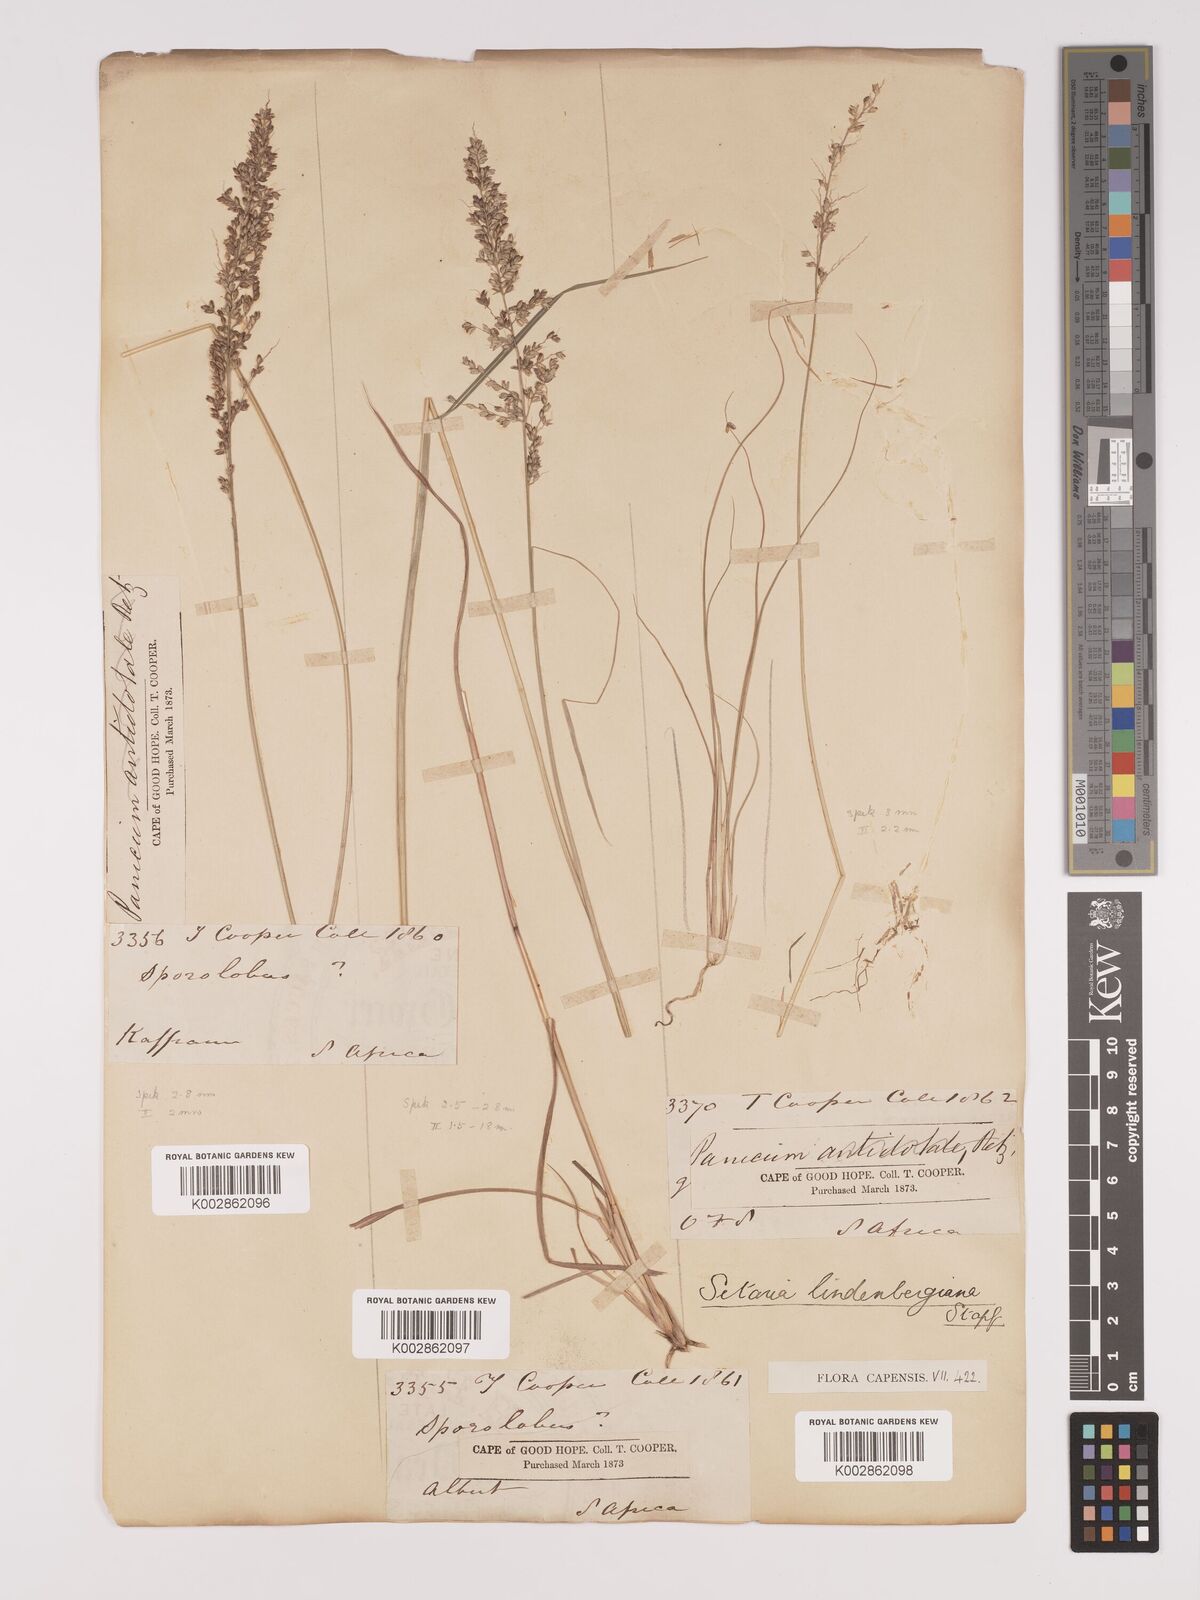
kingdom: Plantae
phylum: Tracheophyta
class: Liliopsida
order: Poales
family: Poaceae
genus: Setaria
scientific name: Setaria lindenbergiana
